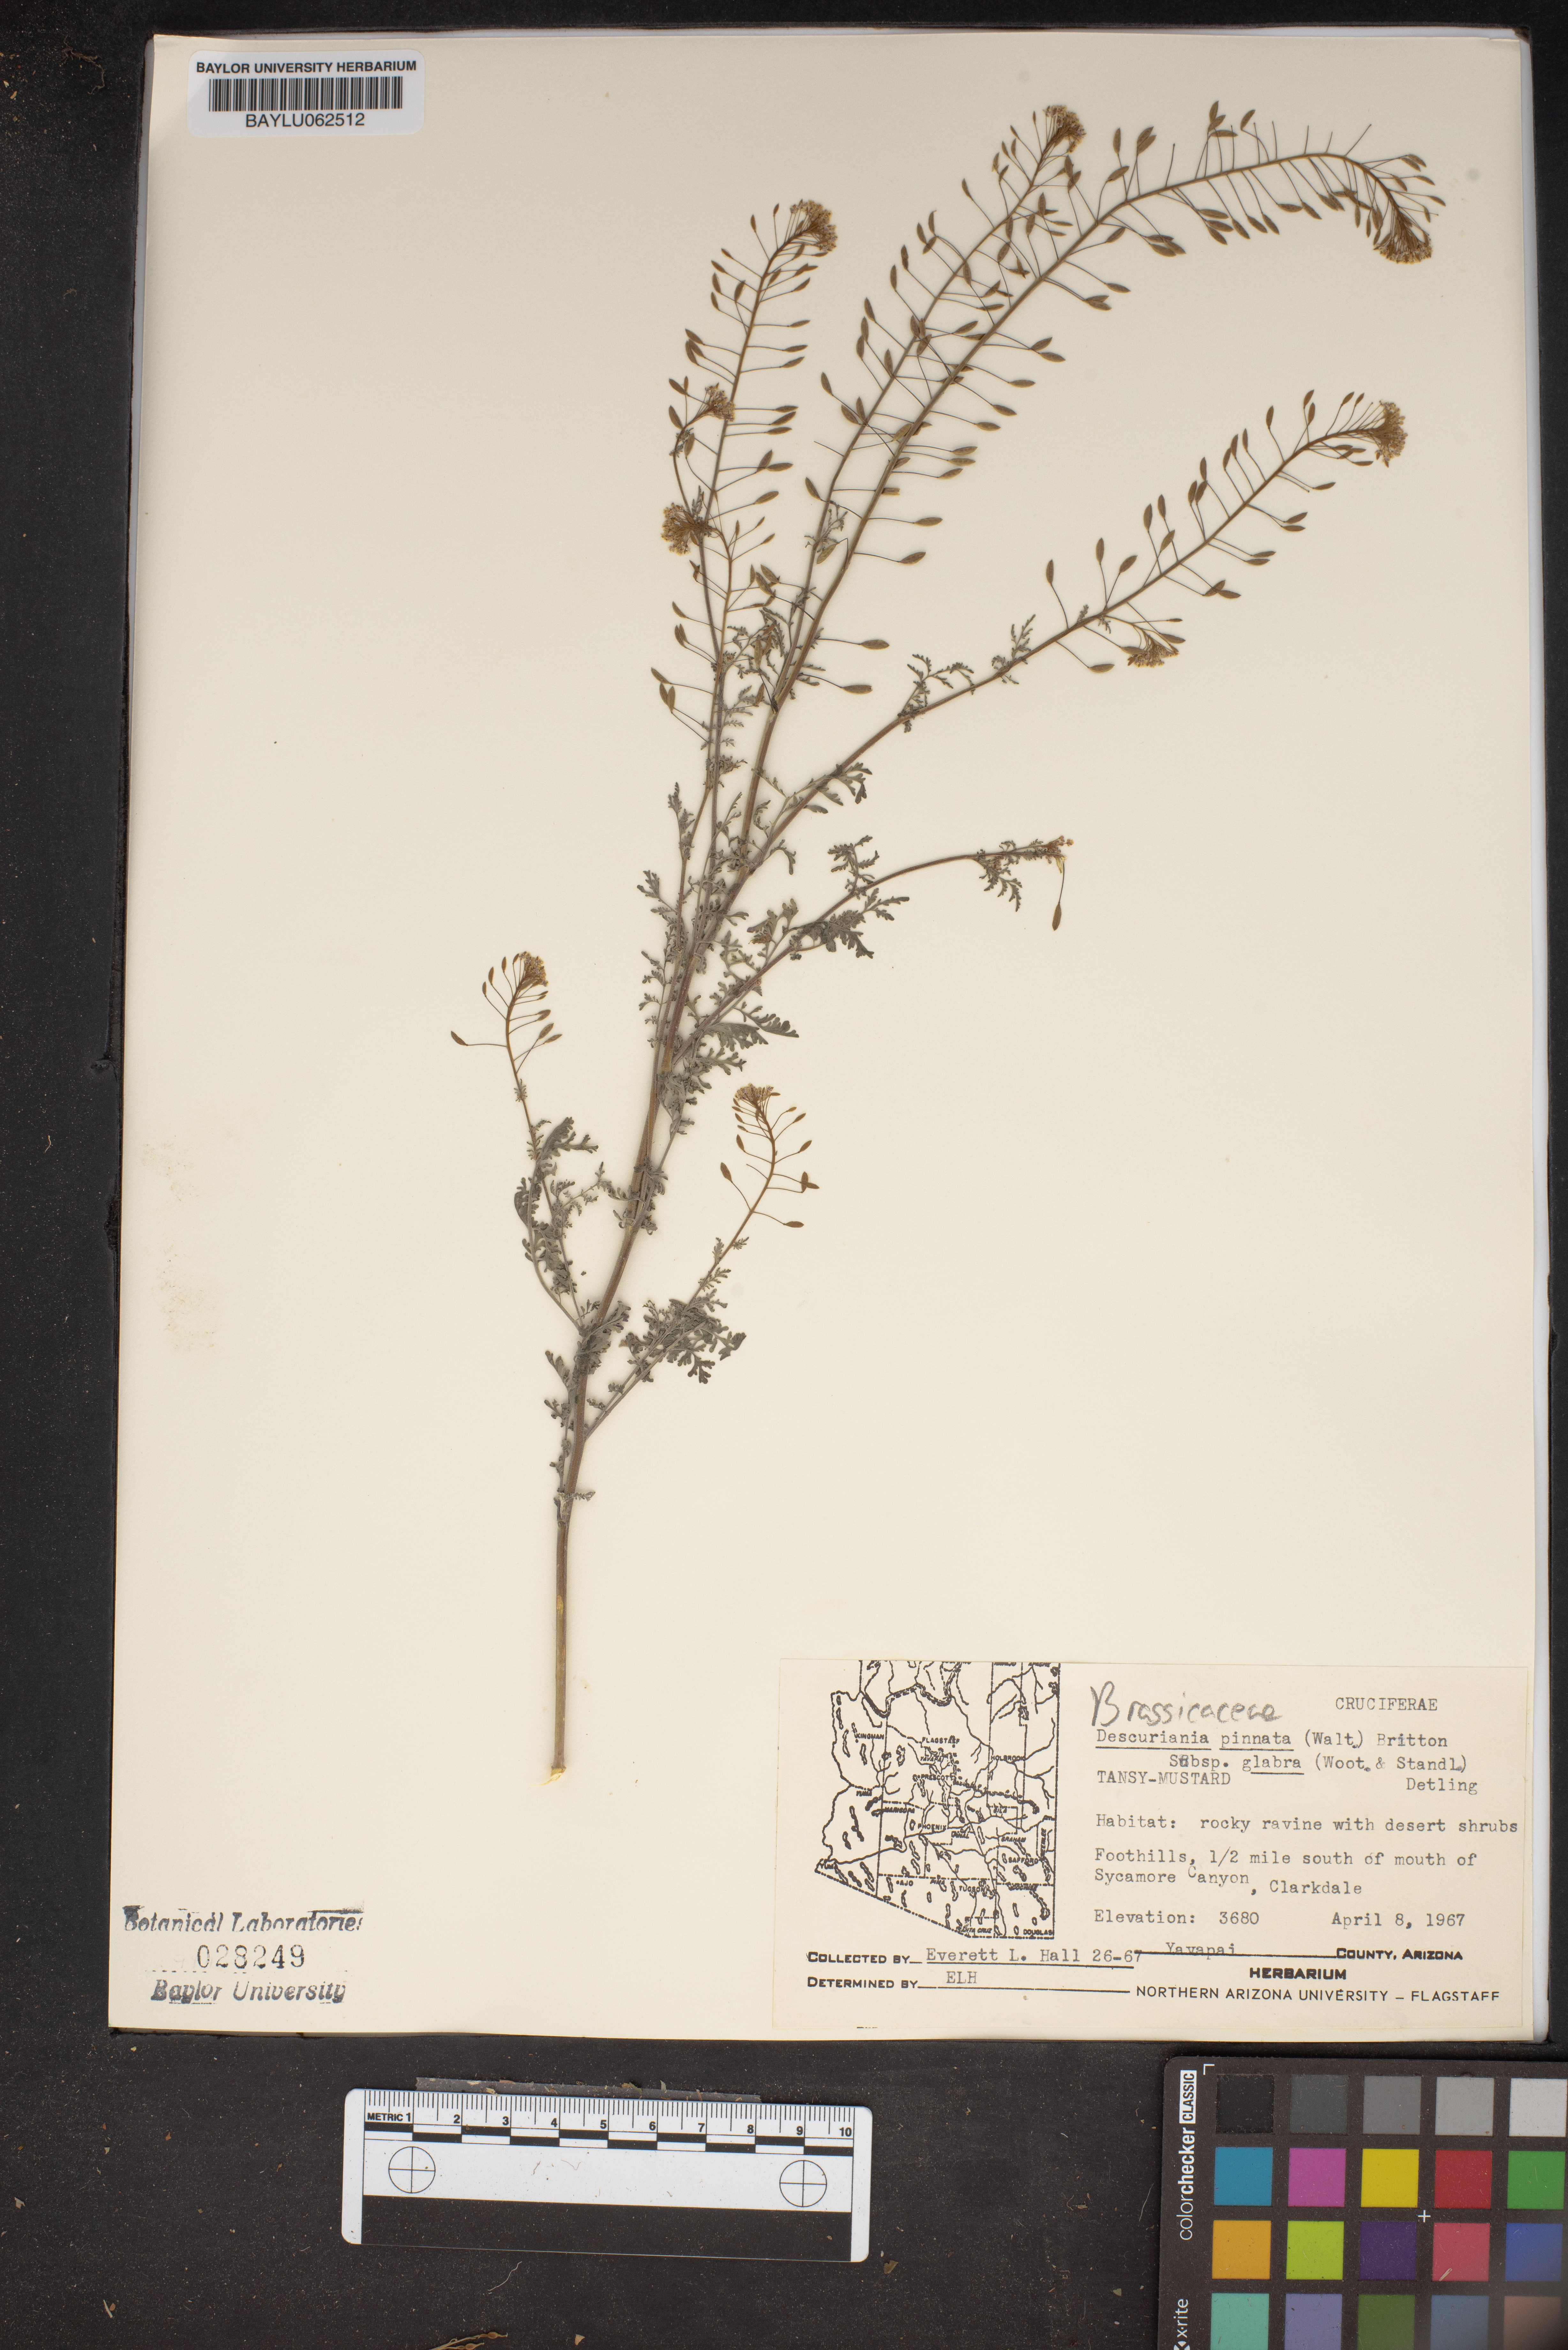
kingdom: Plantae
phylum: Tracheophyta
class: Magnoliopsida
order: Brassicales
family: Brassicaceae
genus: Descurainia
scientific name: Descurainia pinnata
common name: Western tansy mustard
